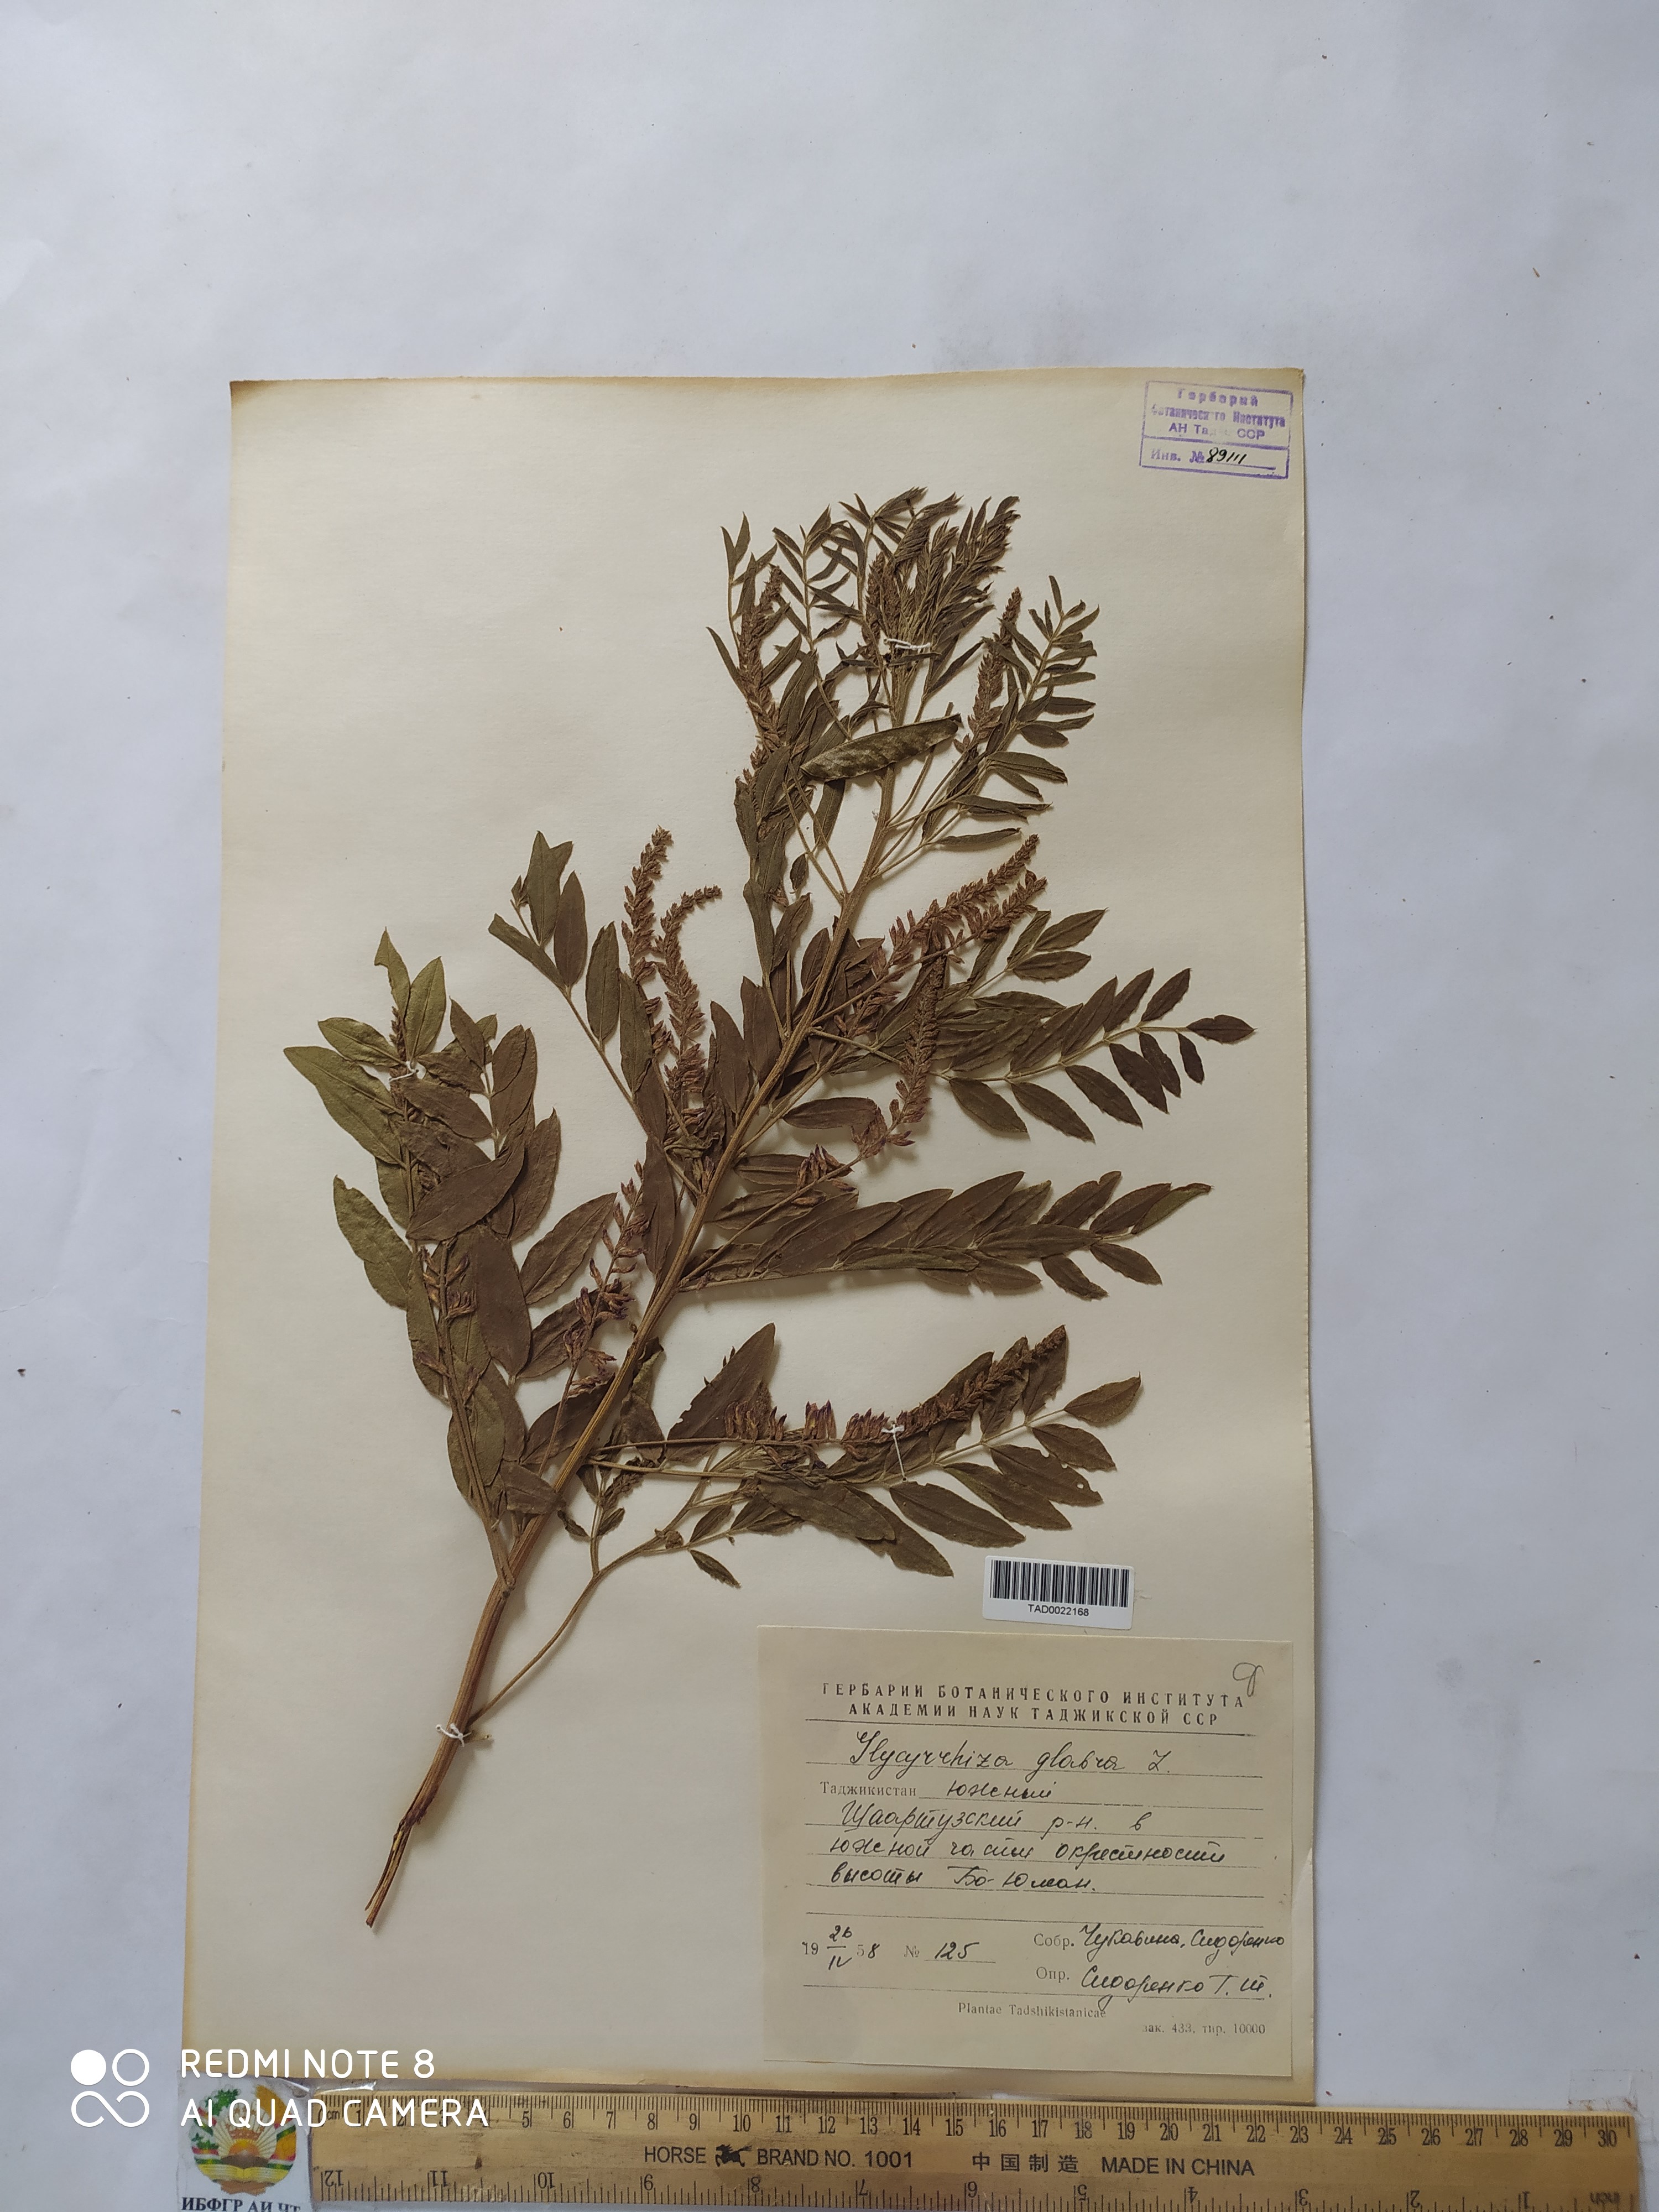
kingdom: Plantae
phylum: Tracheophyta
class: Magnoliopsida
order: Fabales
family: Fabaceae
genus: Glycyrrhiza
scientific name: Glycyrrhiza glabra
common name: Liquorice
